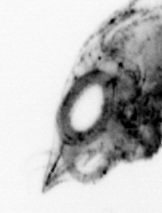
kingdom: Animalia
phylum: Arthropoda
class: Malacostraca
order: Decapoda
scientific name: Decapoda
